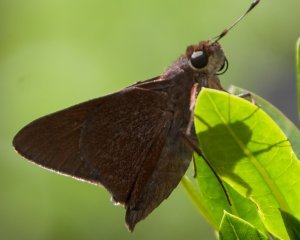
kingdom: Animalia
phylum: Arthropoda
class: Insecta
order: Lepidoptera
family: Hesperiidae
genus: Asbolis
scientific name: Asbolis capucinus
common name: Monk Skipper
